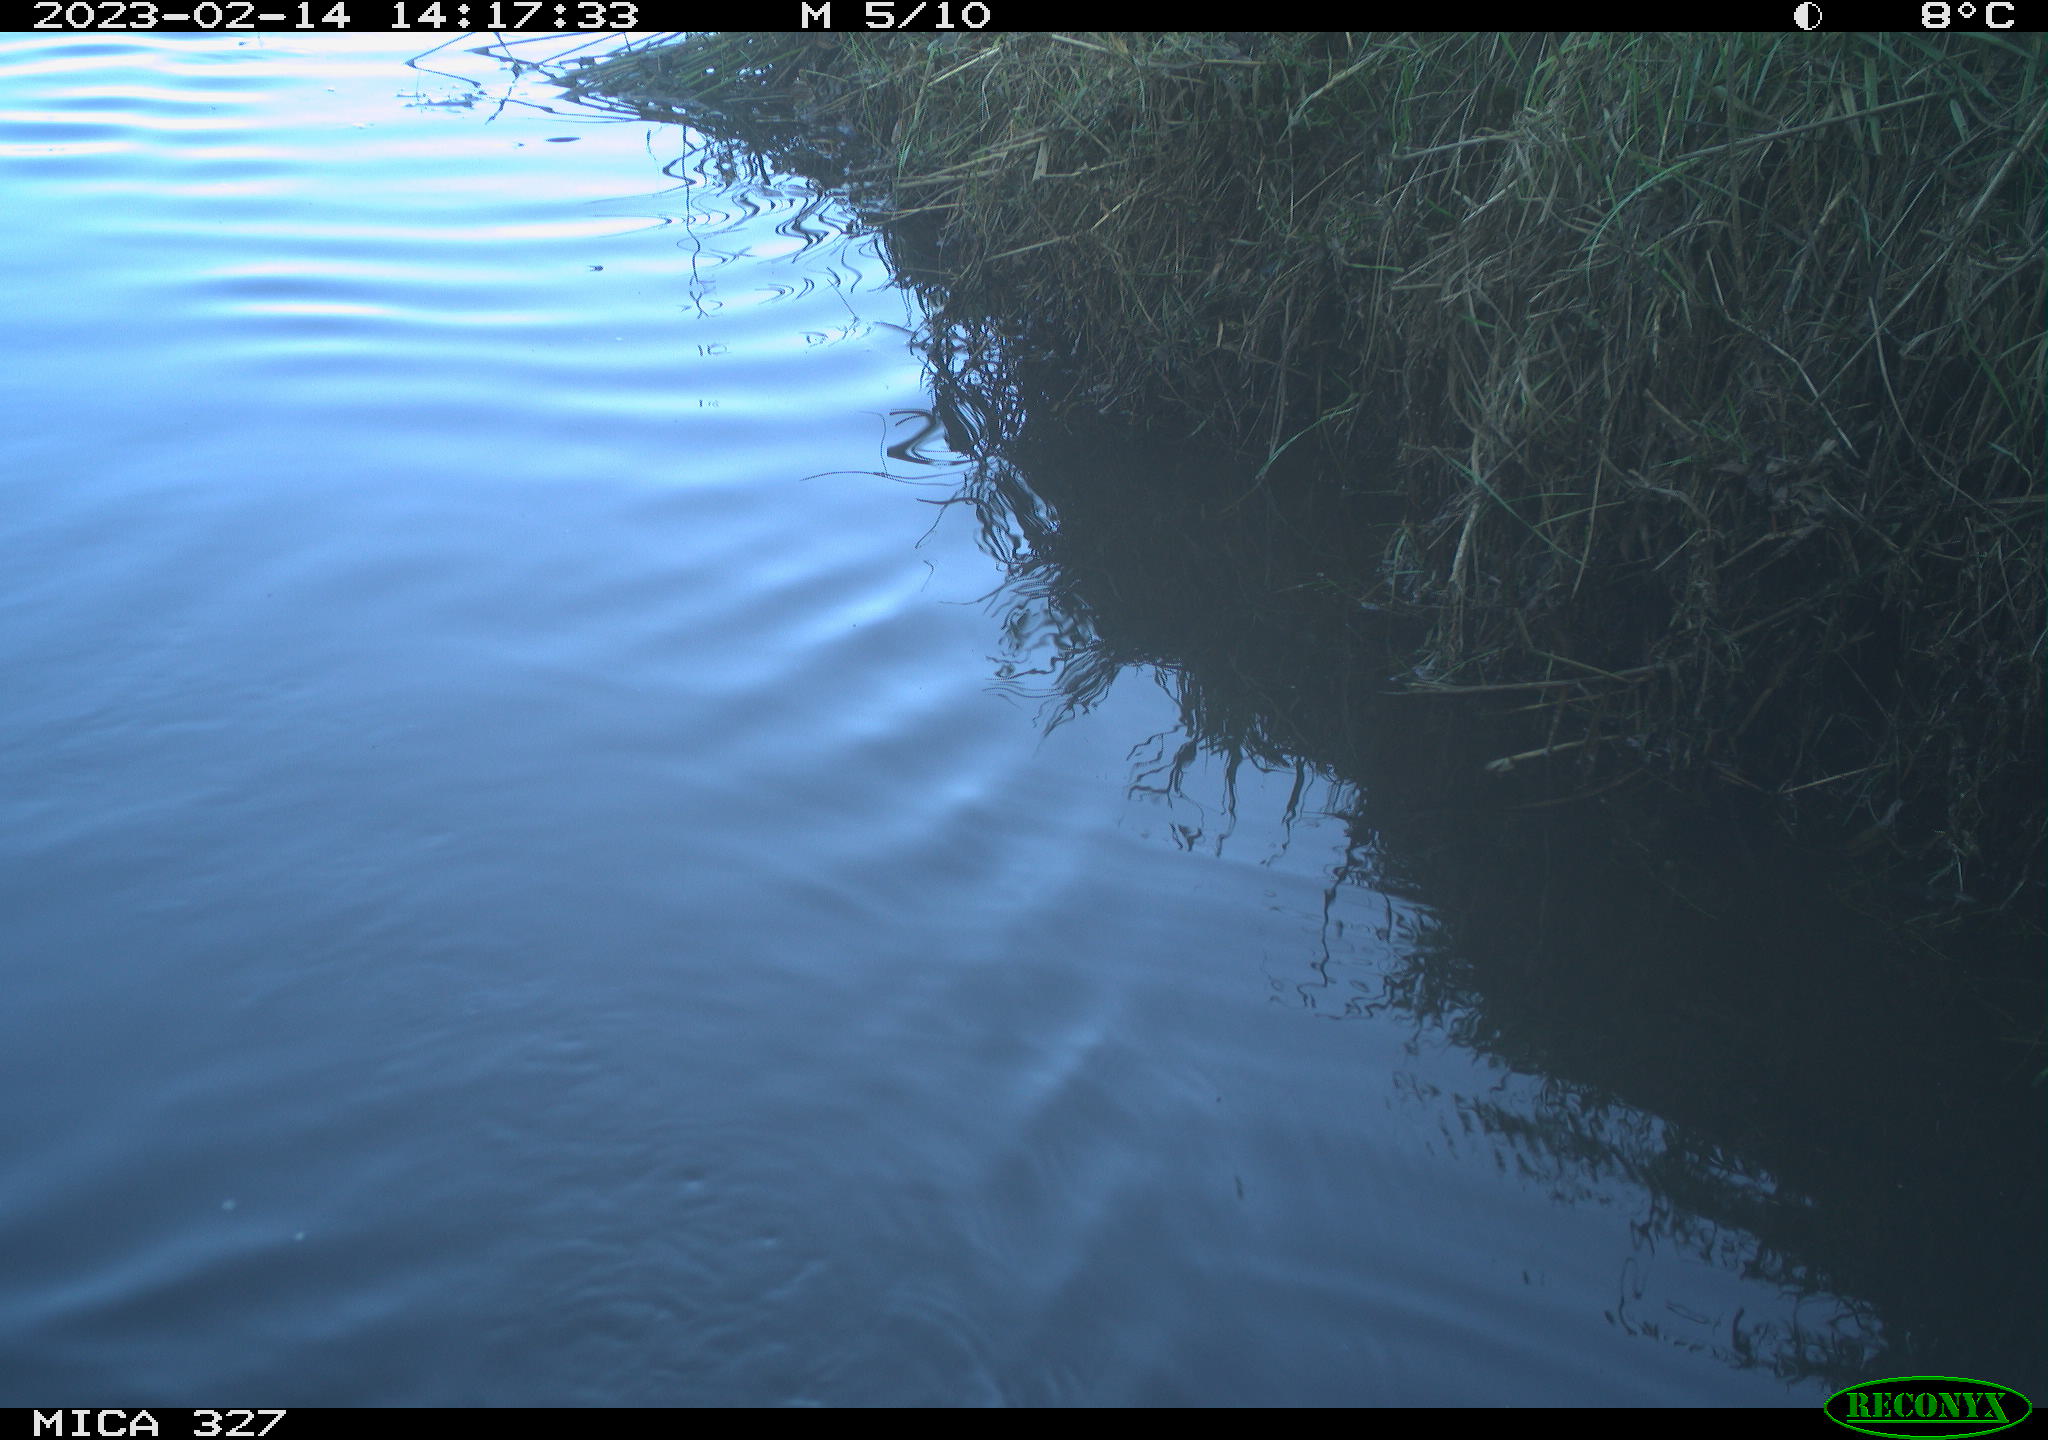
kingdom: Animalia
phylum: Chordata
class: Aves
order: Anseriformes
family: Anatidae
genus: Anas
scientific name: Anas
